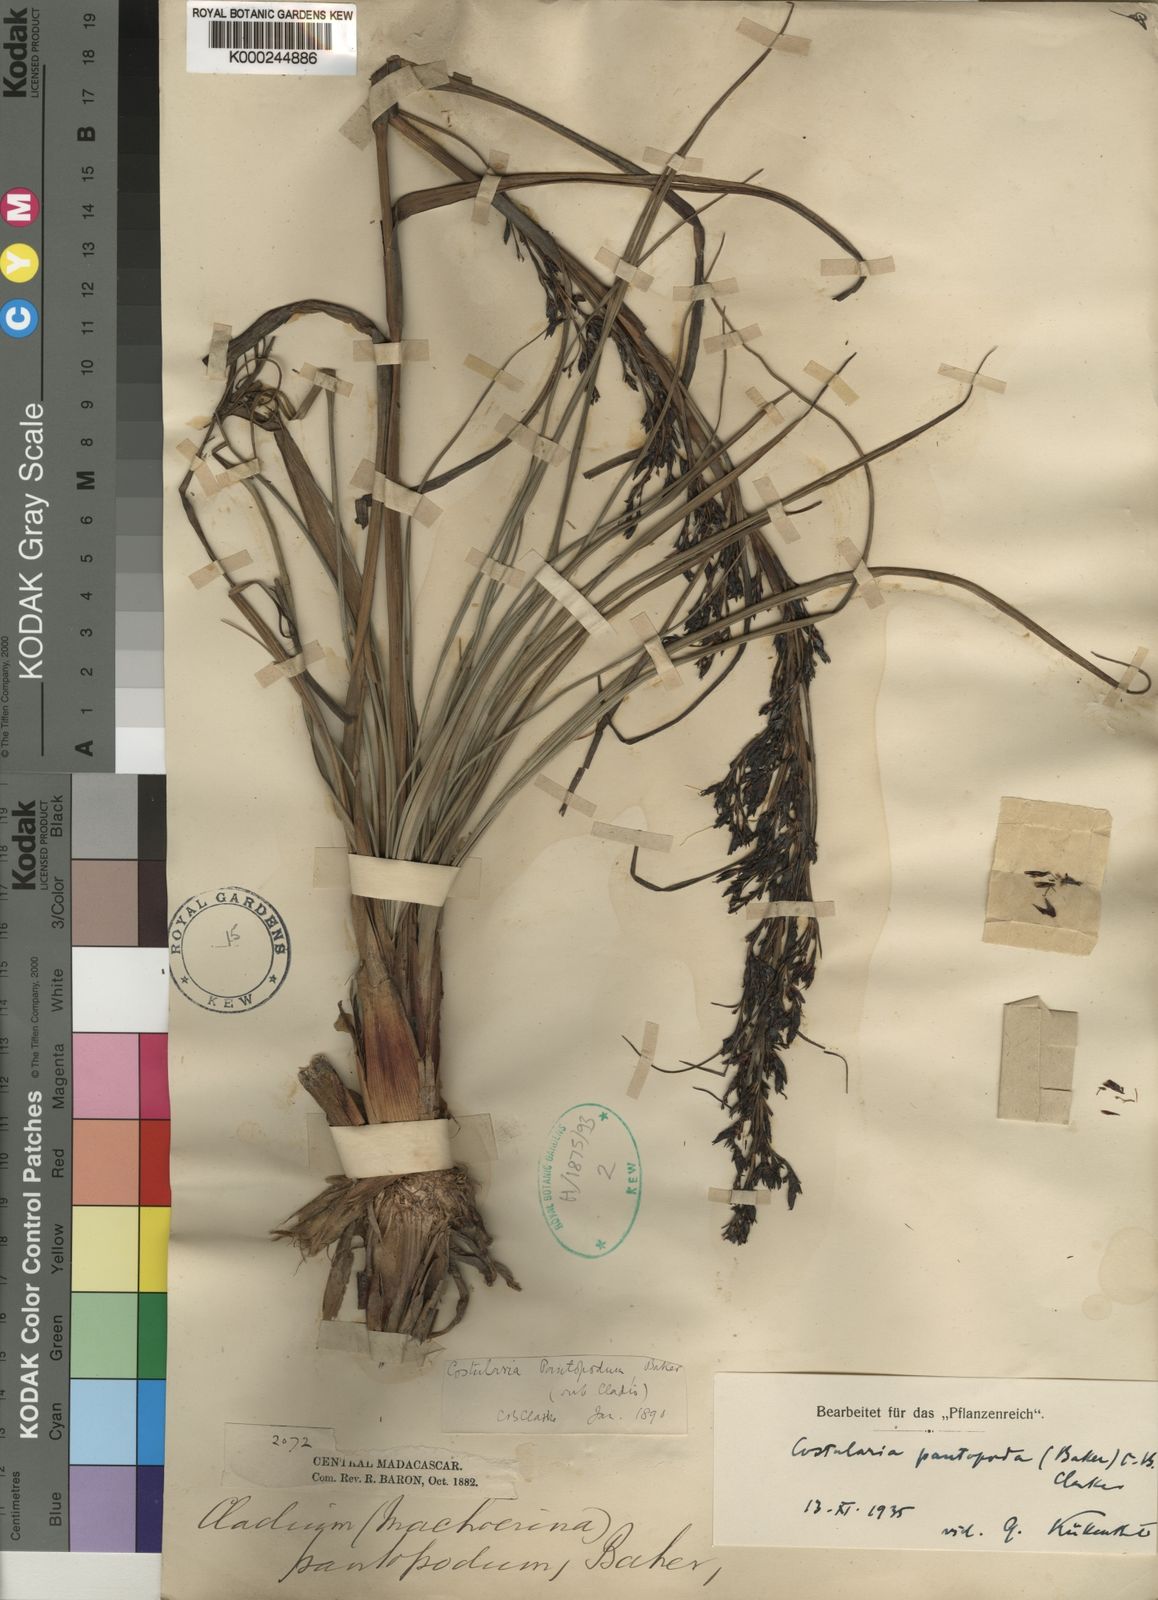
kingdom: Plantae
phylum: Tracheophyta
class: Liliopsida
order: Poales
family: Cyperaceae
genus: Costularia
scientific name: Costularia
